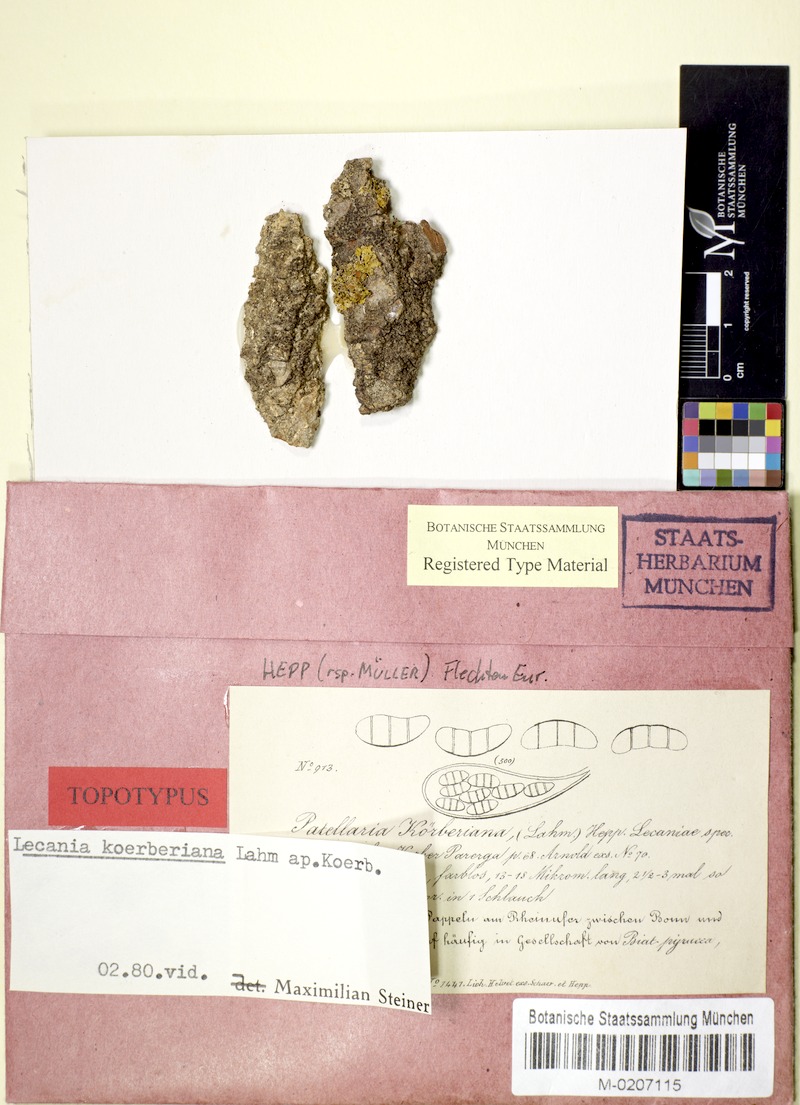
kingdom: Fungi
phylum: Ascomycota
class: Lecanoromycetes
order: Lecanorales
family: Ramalinaceae
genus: Lecania
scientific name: Lecania koerberiana
